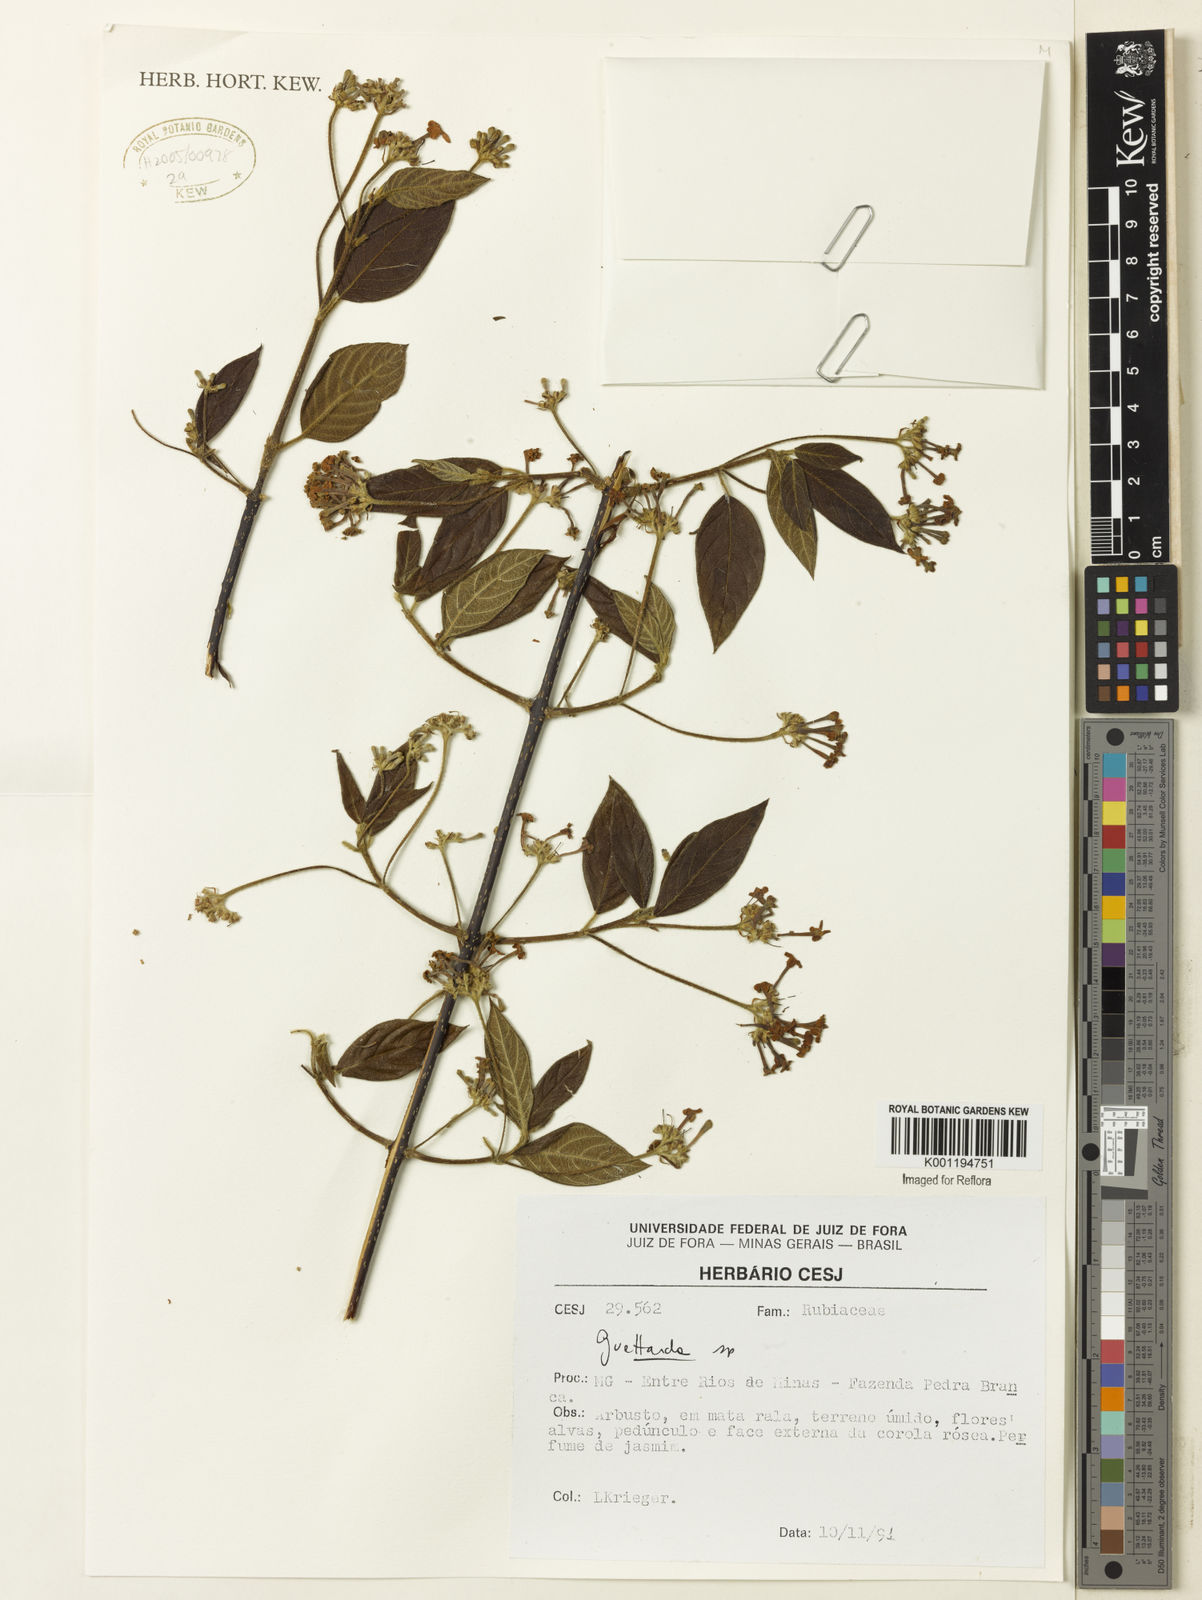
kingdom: Plantae
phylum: Tracheophyta
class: Magnoliopsida
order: Gentianales
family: Rubiaceae
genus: Guettarda
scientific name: Guettarda
